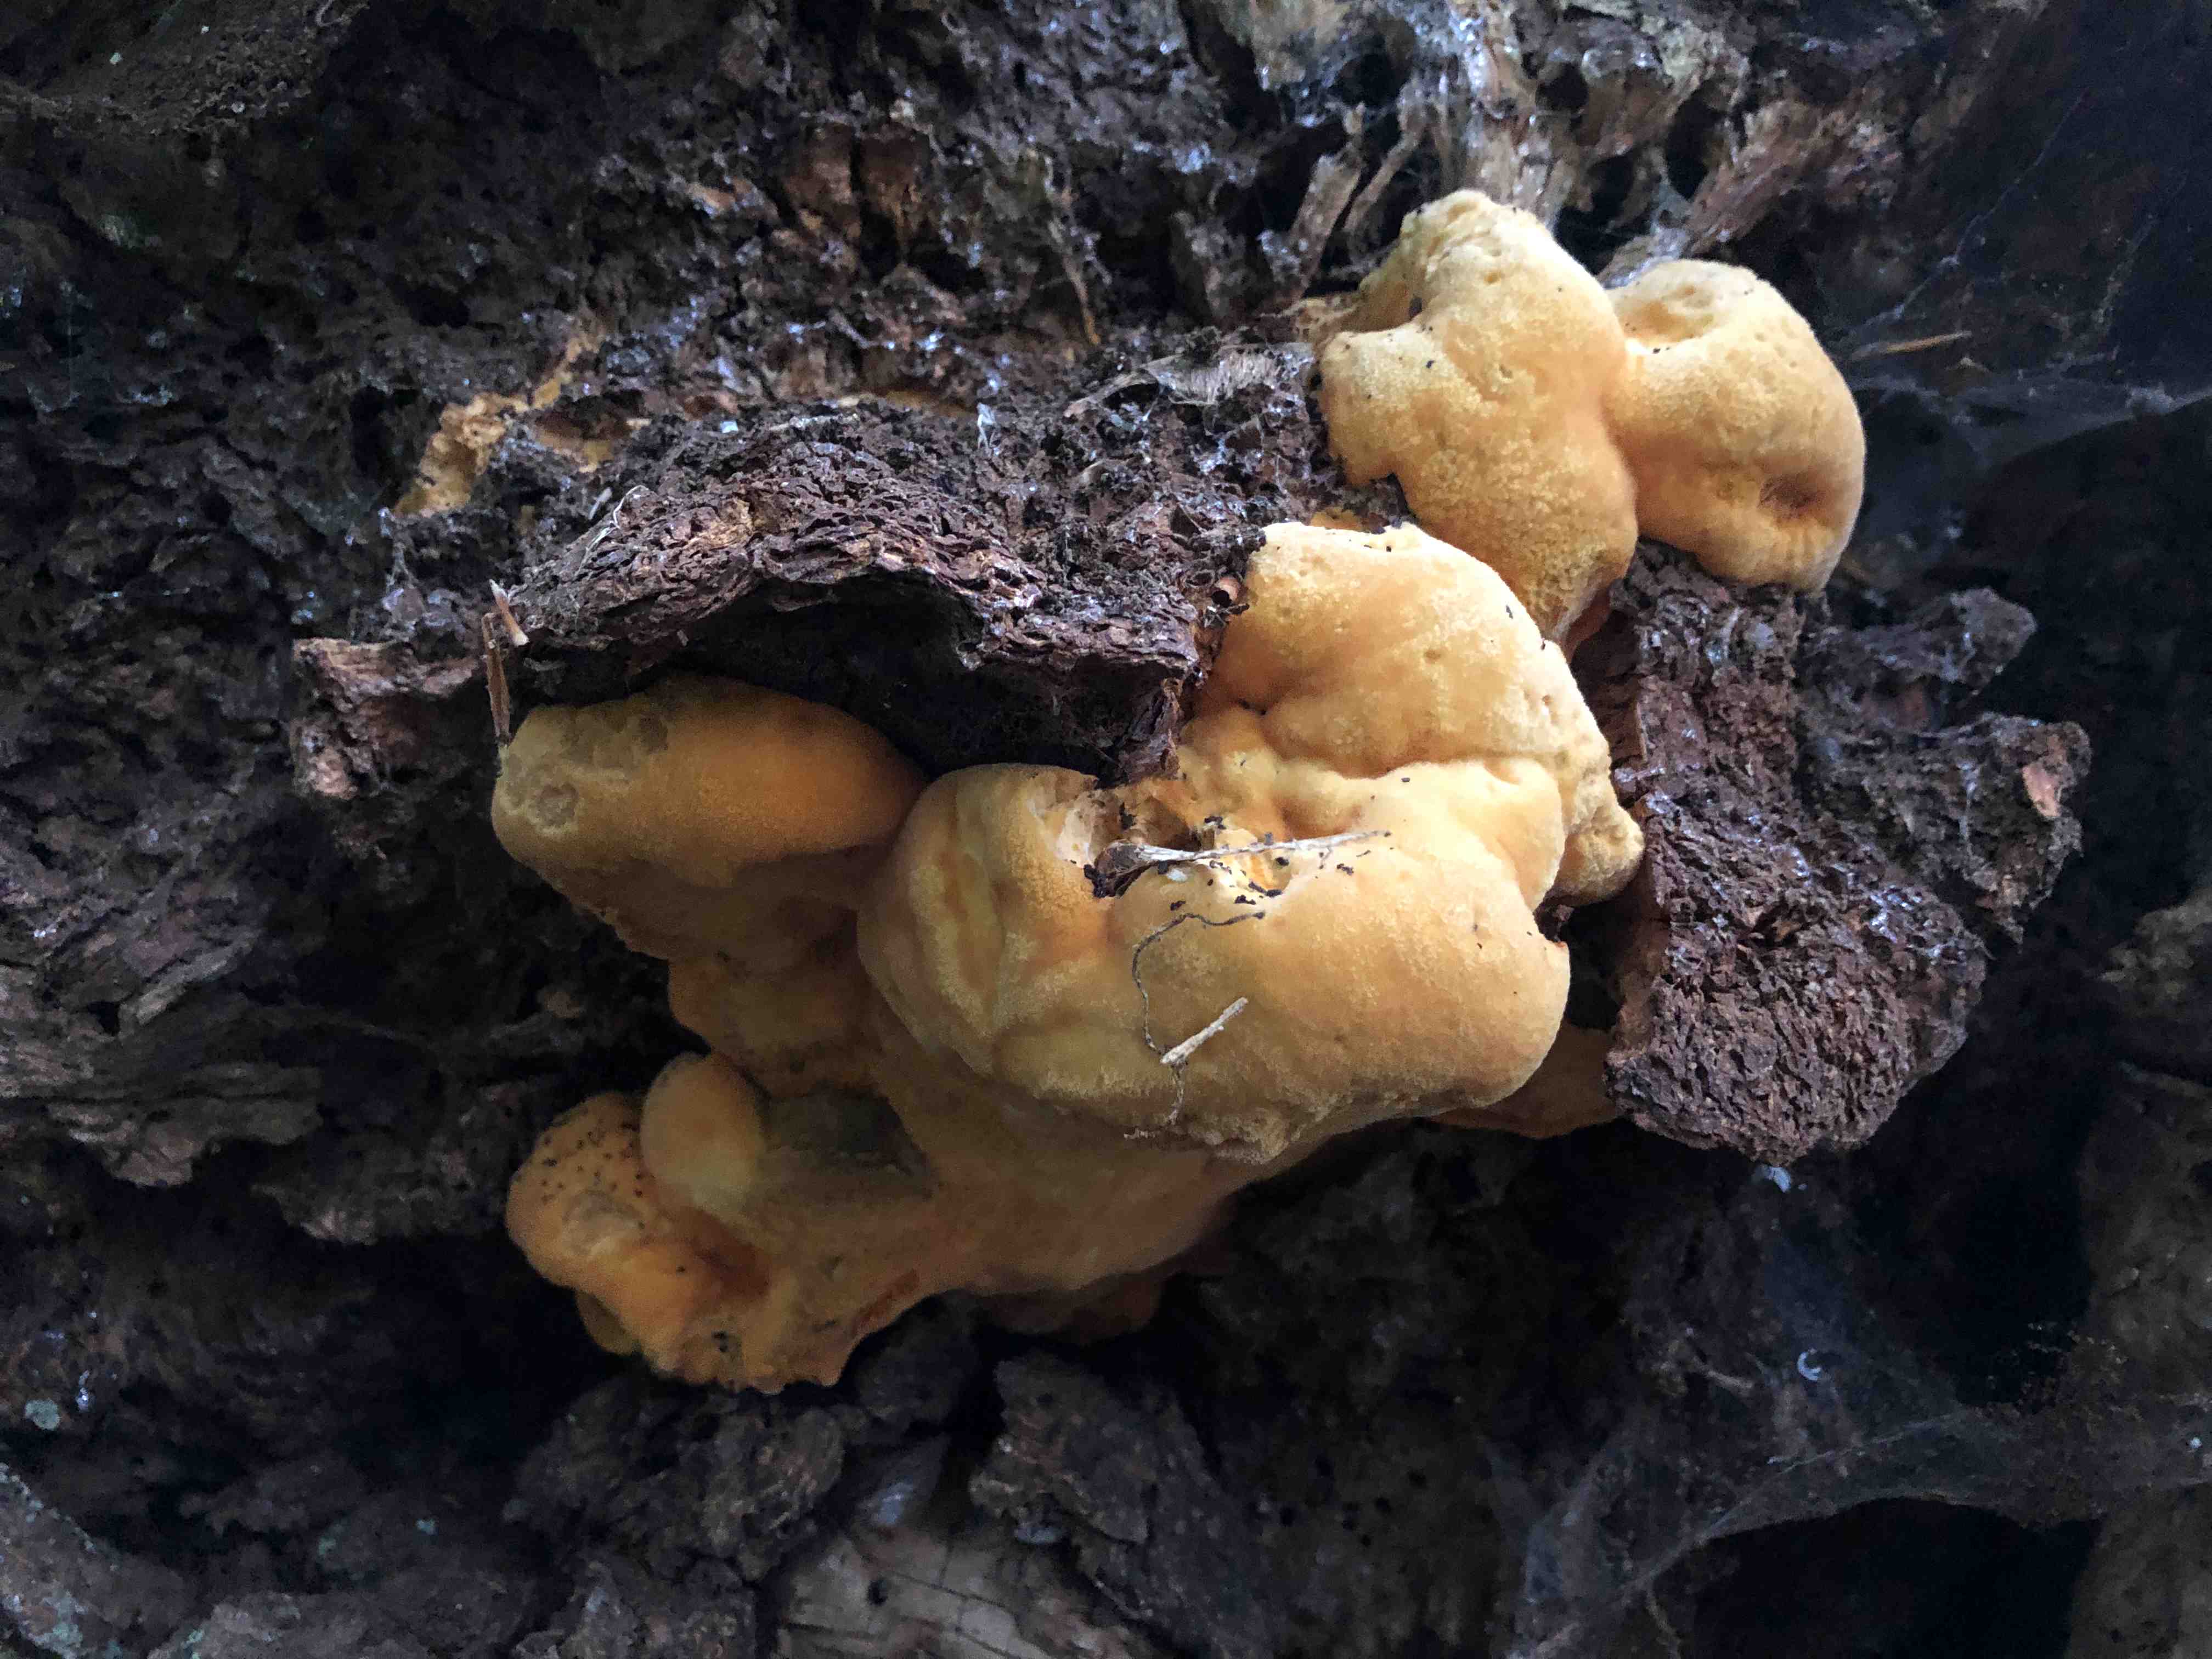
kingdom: Fungi
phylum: Basidiomycota
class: Agaricomycetes
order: Polyporales
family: Phanerochaetaceae
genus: Hapalopilus
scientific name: Hapalopilus croceus
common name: safrangul pragtporesvamp
